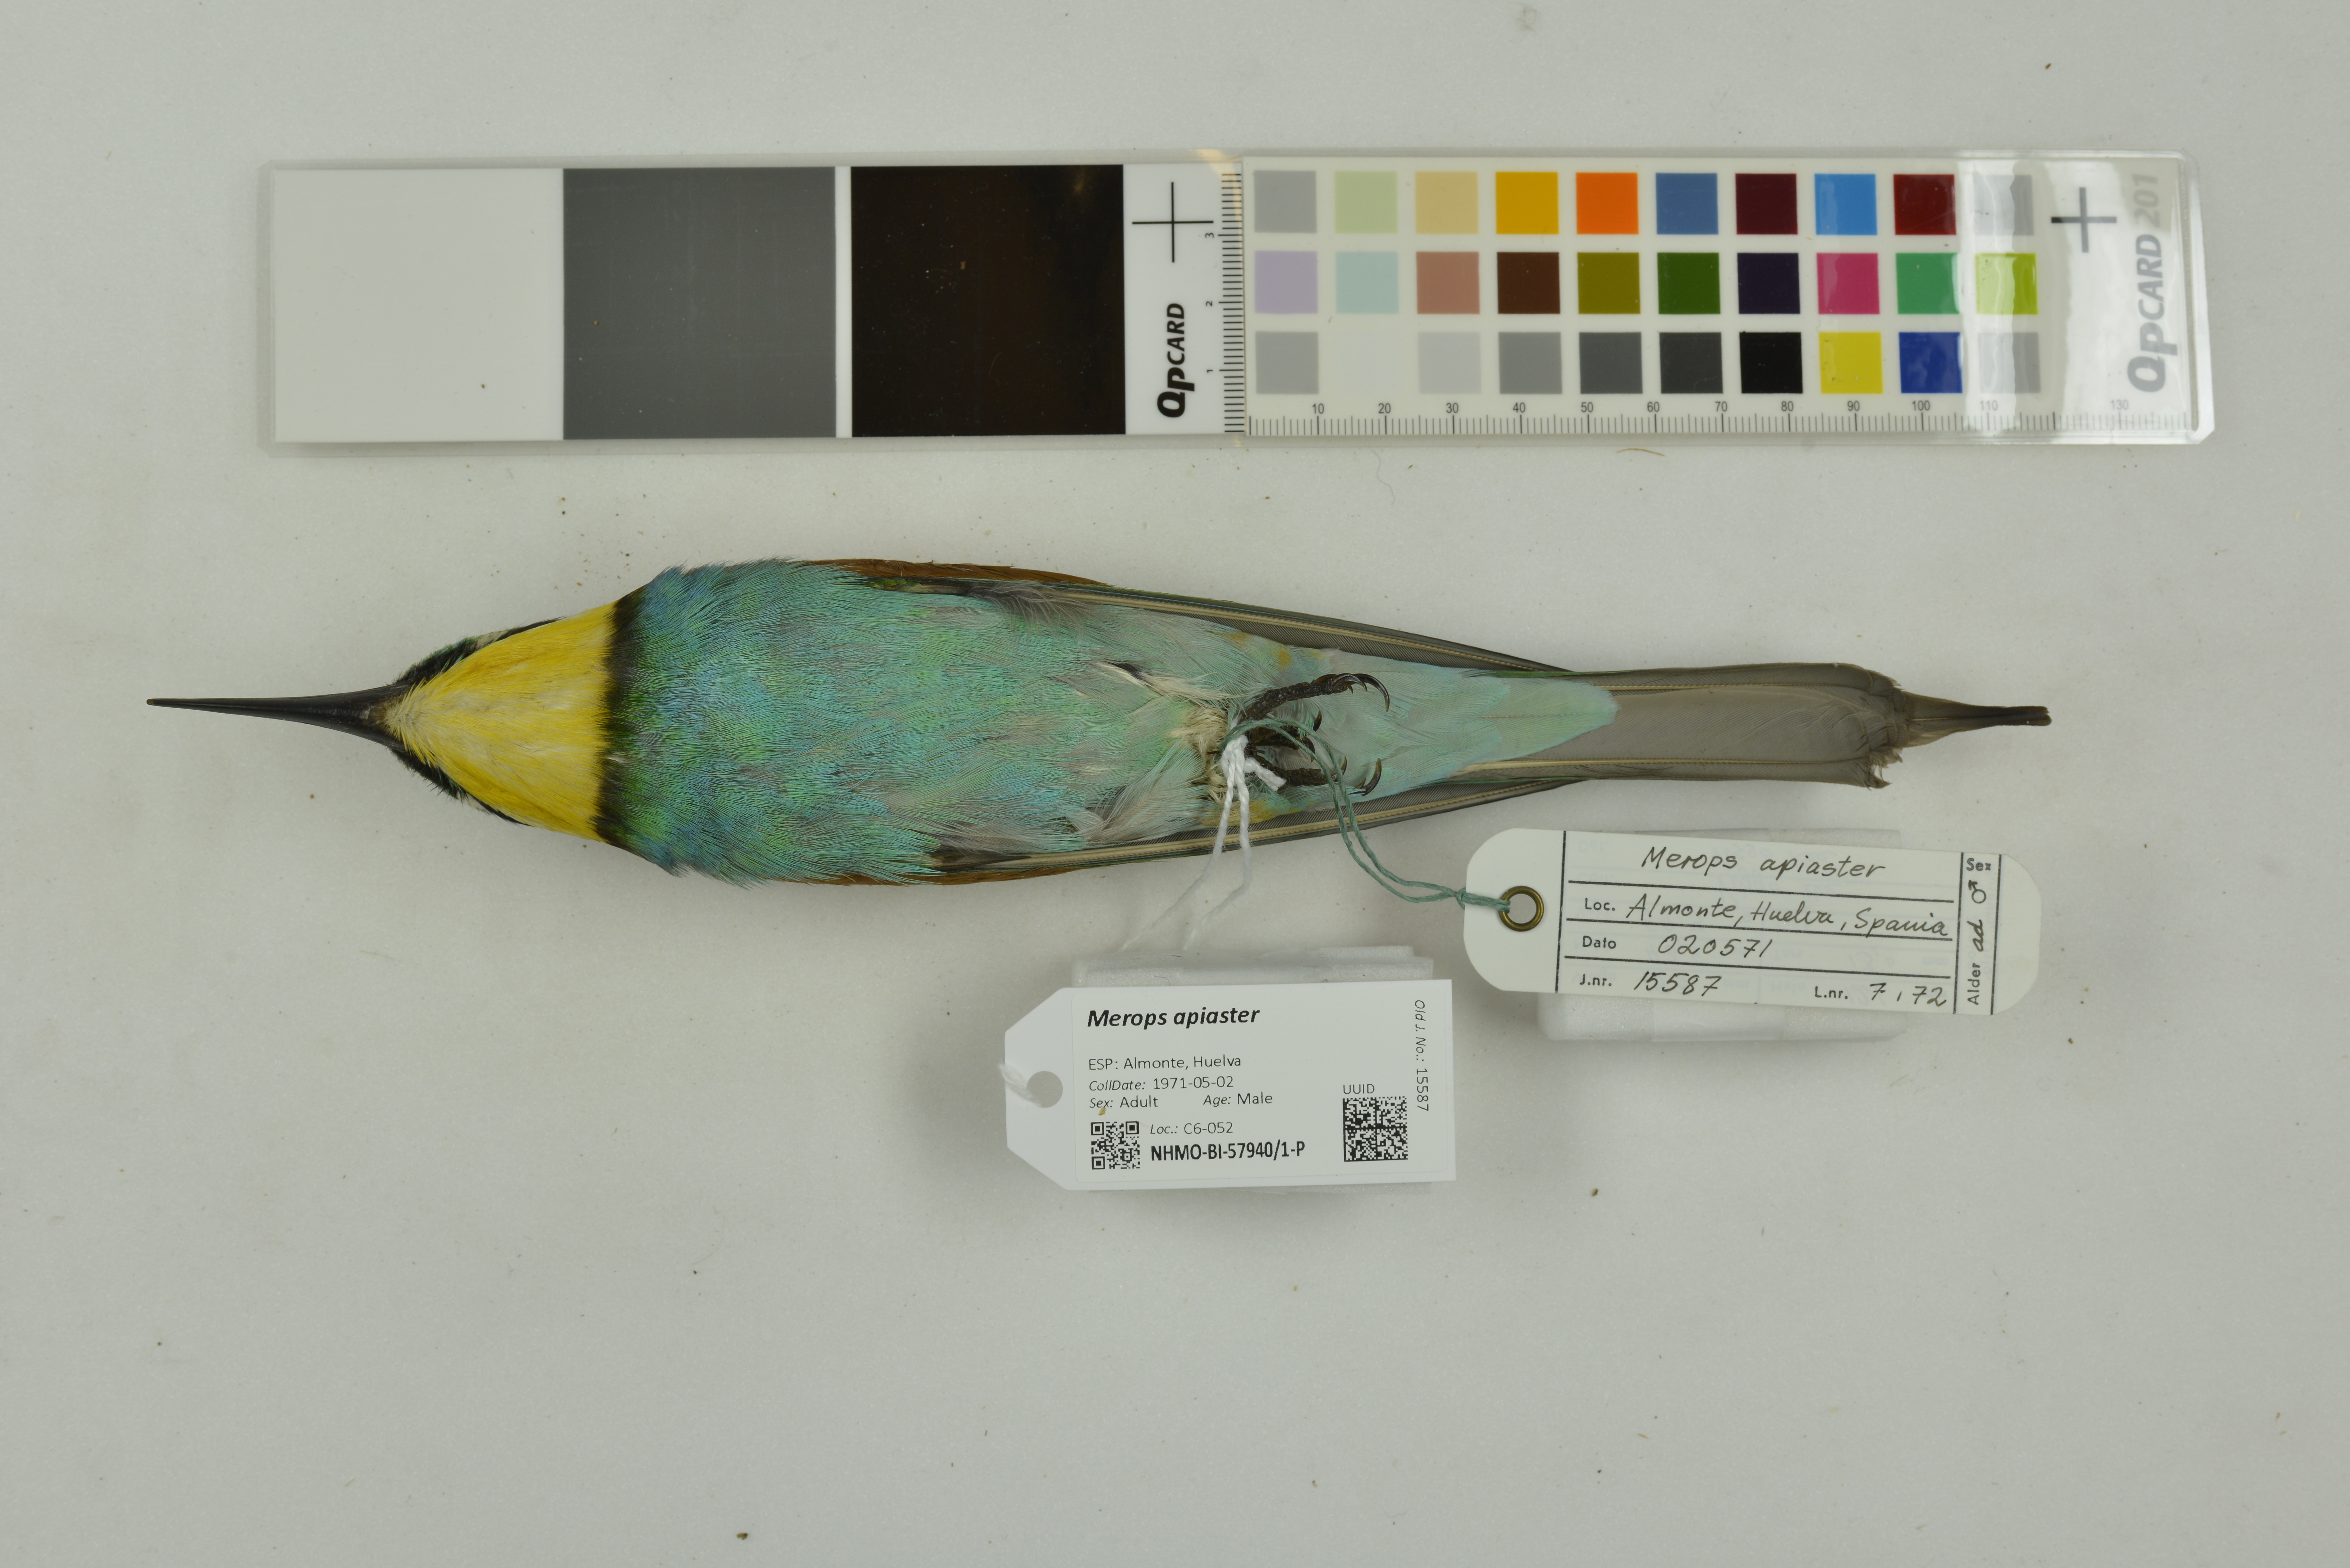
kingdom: Animalia
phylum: Chordata
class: Aves
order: Coraciiformes
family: Meropidae
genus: Merops
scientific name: Merops apiaster
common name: European bee-eater
